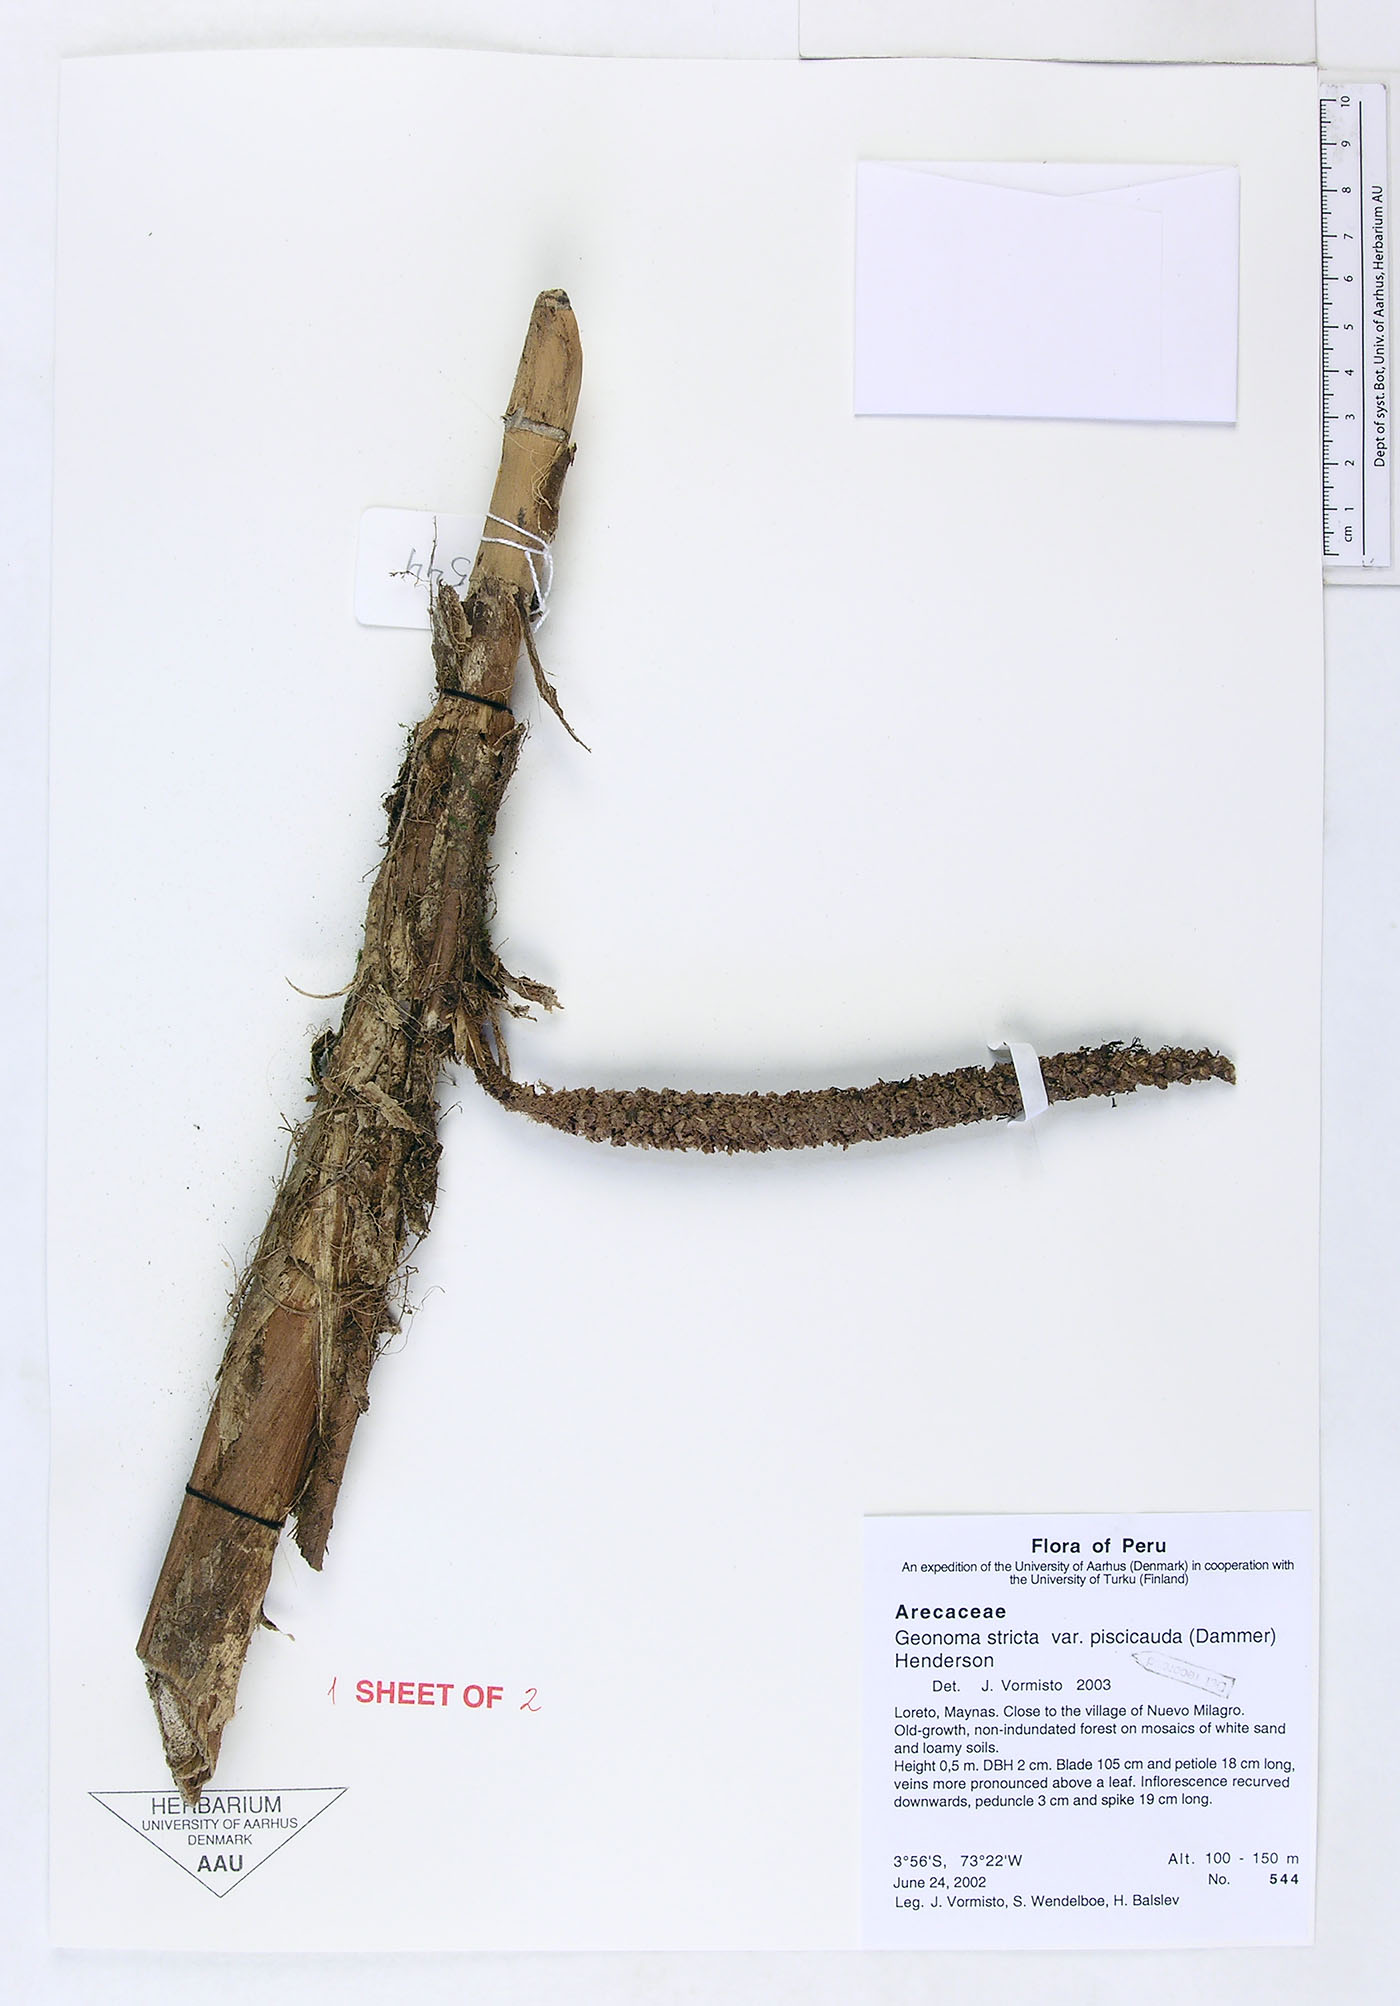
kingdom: Plantae
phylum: Tracheophyta
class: Liliopsida
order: Arecales
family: Arecaceae
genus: Geonoma
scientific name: Geonoma stricta
